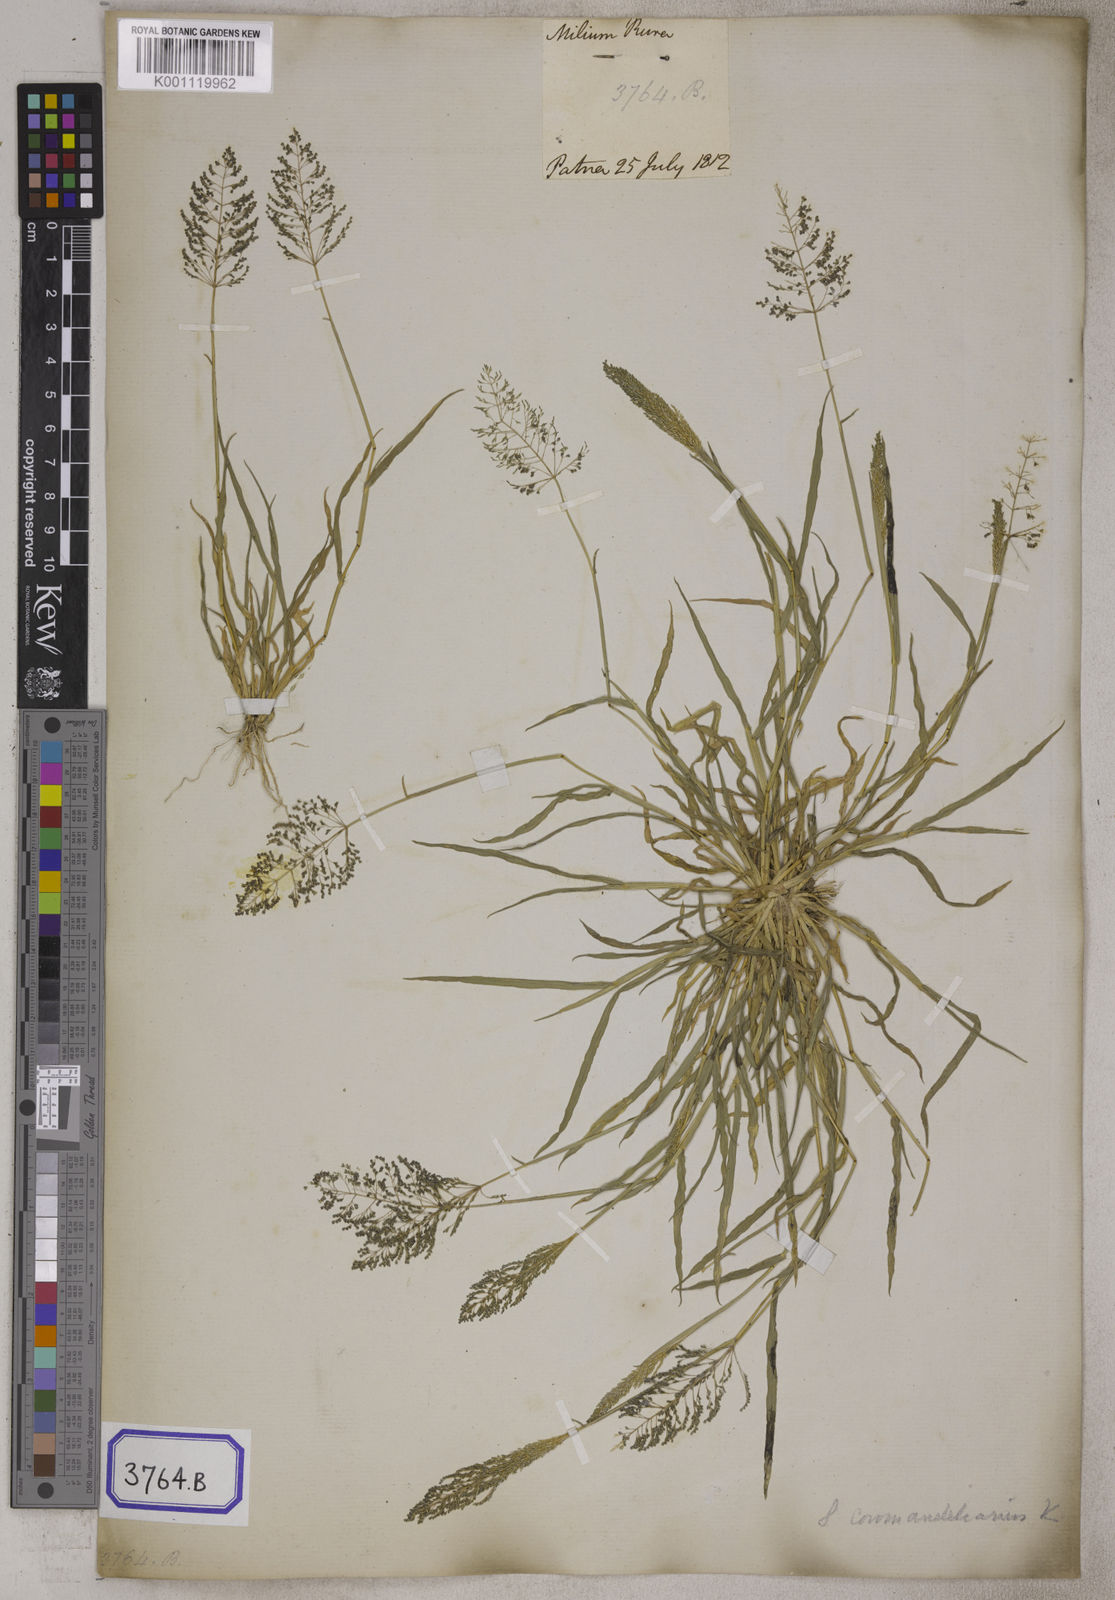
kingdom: Plantae
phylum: Tracheophyta
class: Liliopsida
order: Poales
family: Poaceae
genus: Sporobolus
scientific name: Sporobolus coromandelianus
